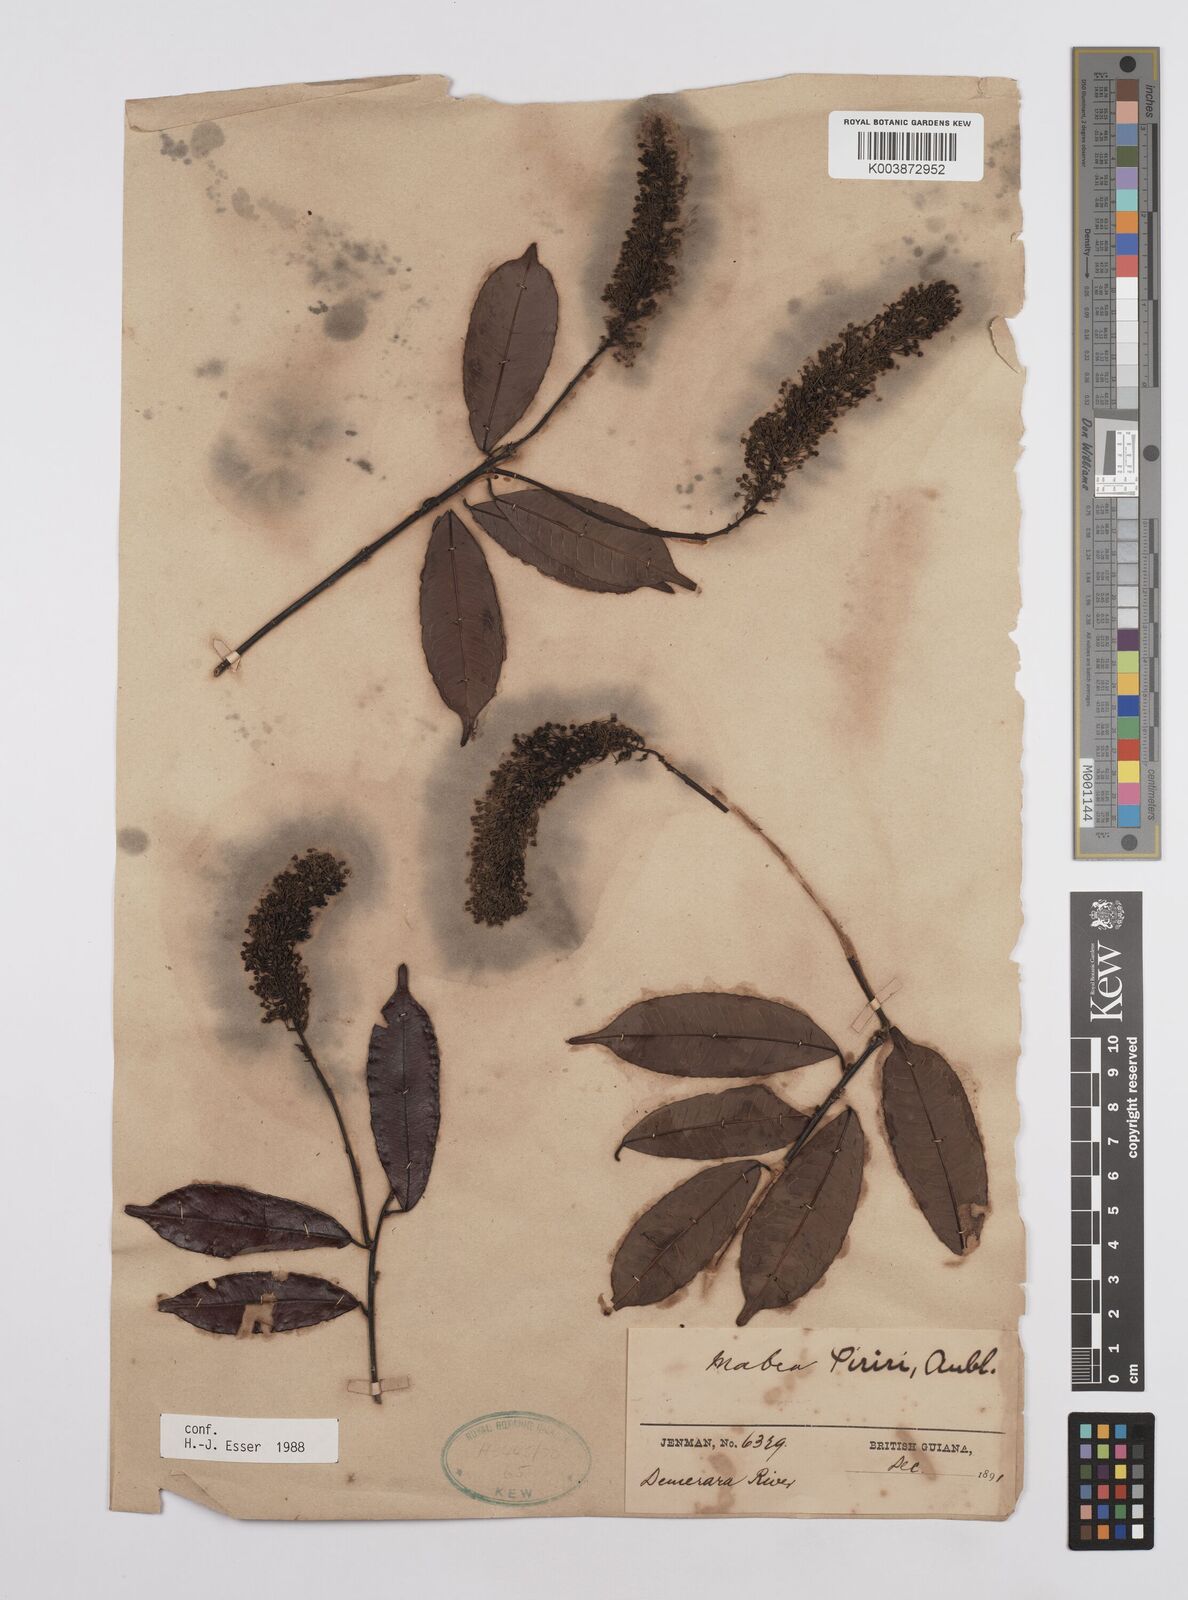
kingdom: Plantae
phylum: Tracheophyta
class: Magnoliopsida
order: Malpighiales
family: Euphorbiaceae
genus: Mabea
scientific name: Mabea piriri
